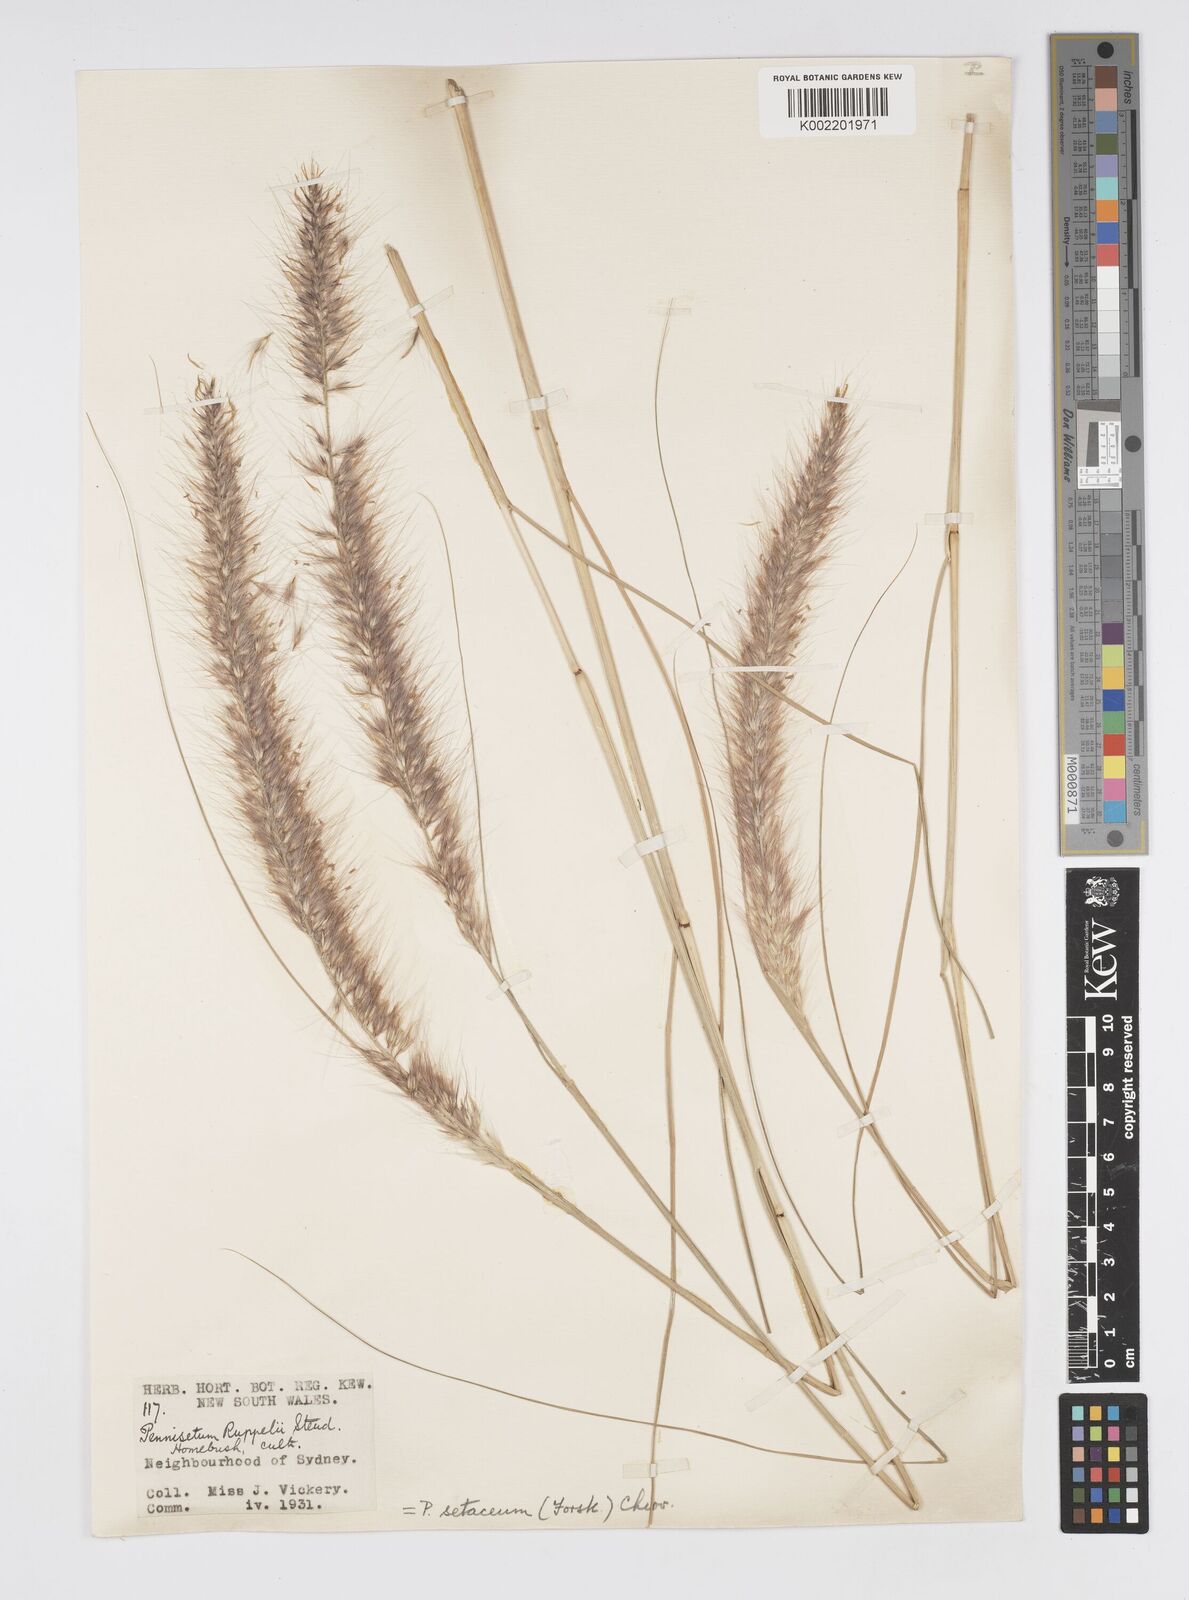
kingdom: Plantae
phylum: Tracheophyta
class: Liliopsida
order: Poales
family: Poaceae
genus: Cenchrus
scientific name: Cenchrus setaceus
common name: Crimson fountaingrass
